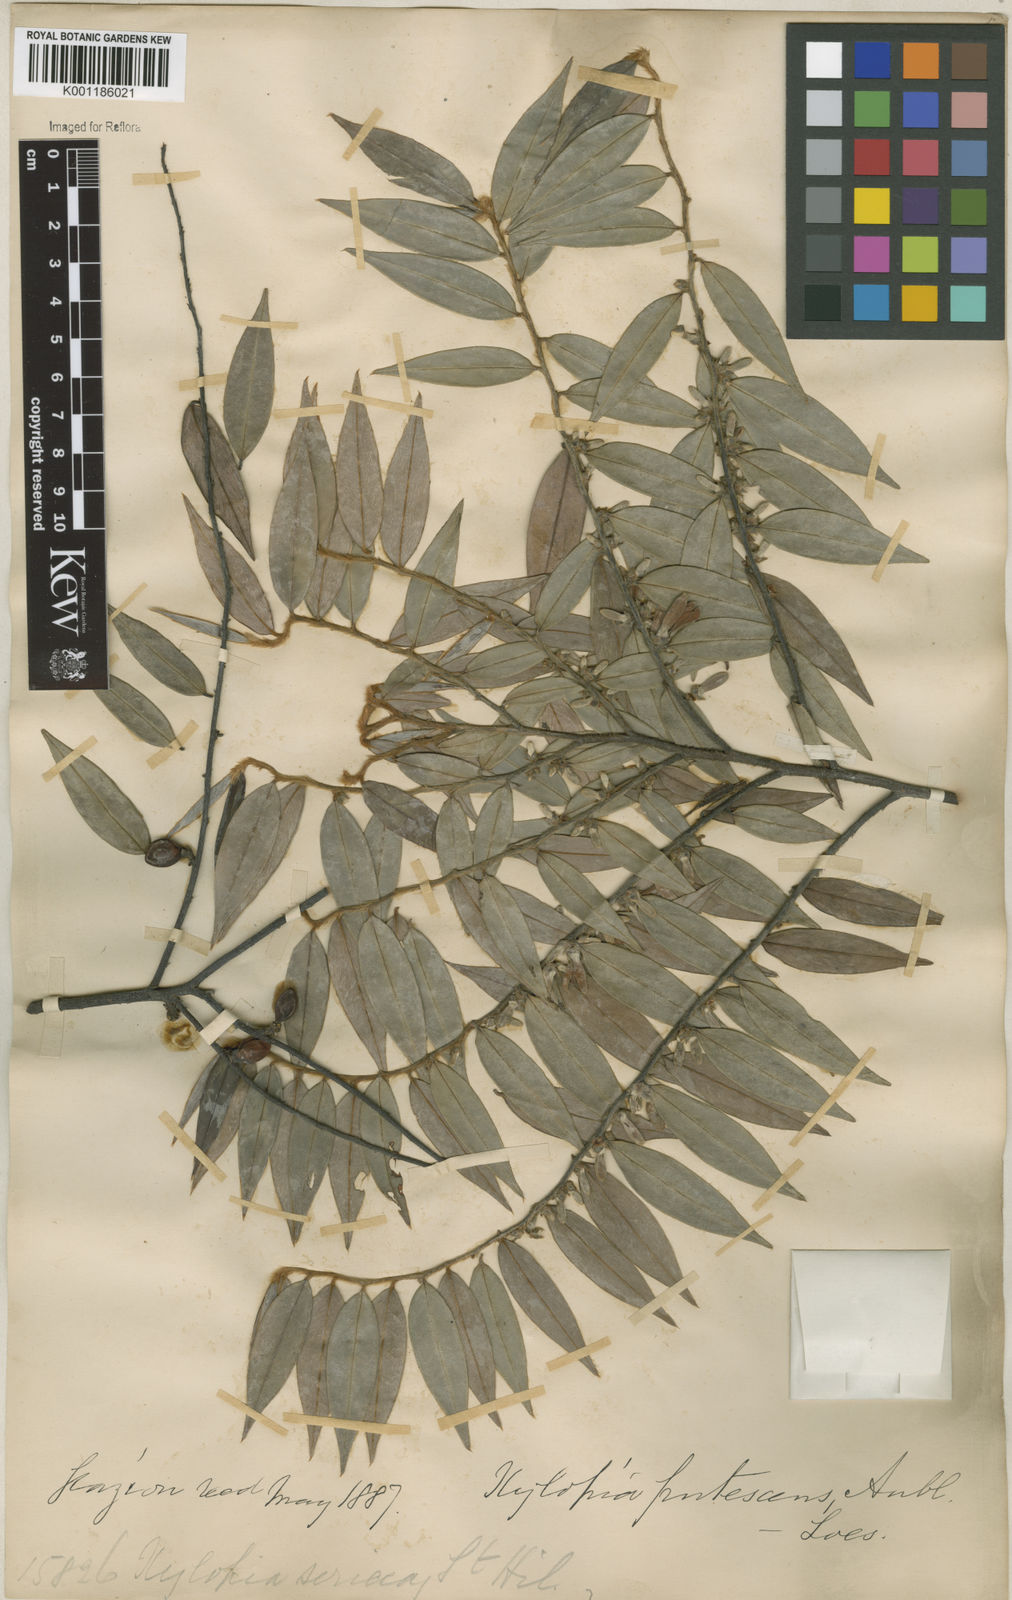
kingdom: Plantae
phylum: Tracheophyta
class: Magnoliopsida
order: Magnoliales
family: Annonaceae
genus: Xylopia
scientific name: Xylopia frutescens
